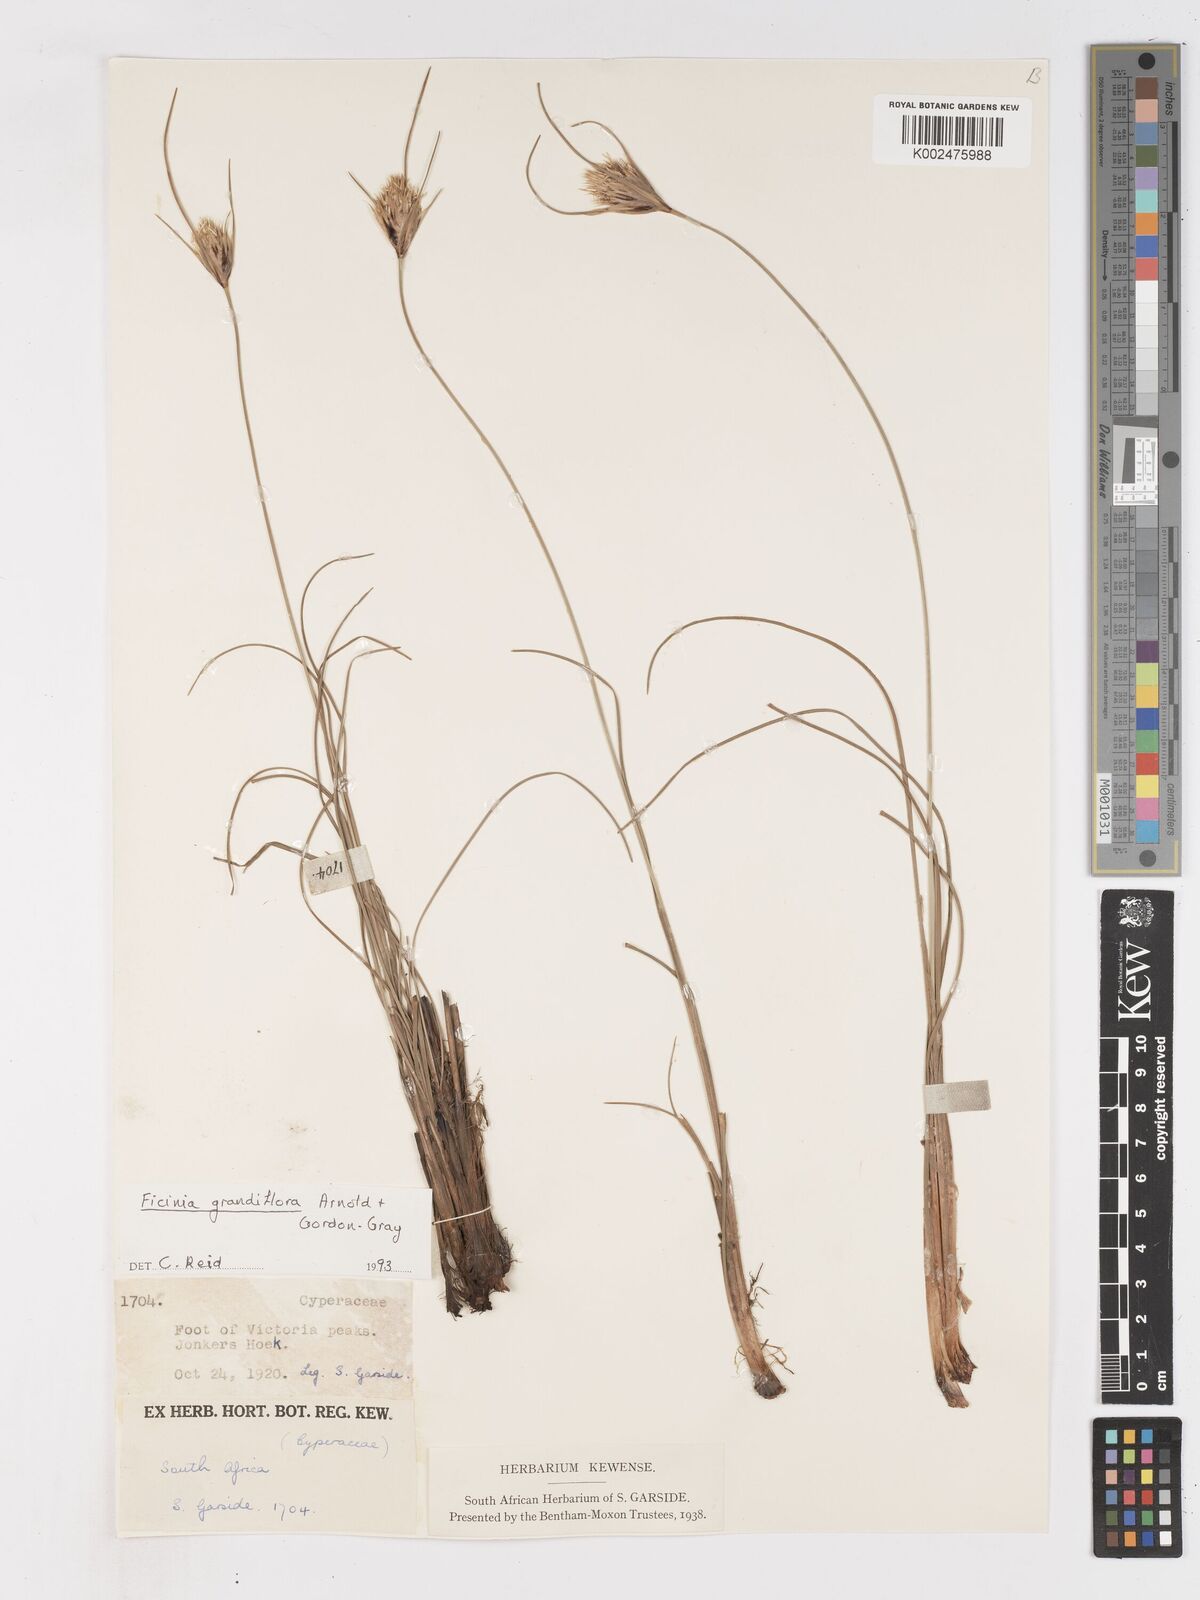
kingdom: Plantae
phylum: Tracheophyta
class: Liliopsida
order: Poales
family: Cyperaceae
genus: Ficinia
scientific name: Ficinia grandiflora
